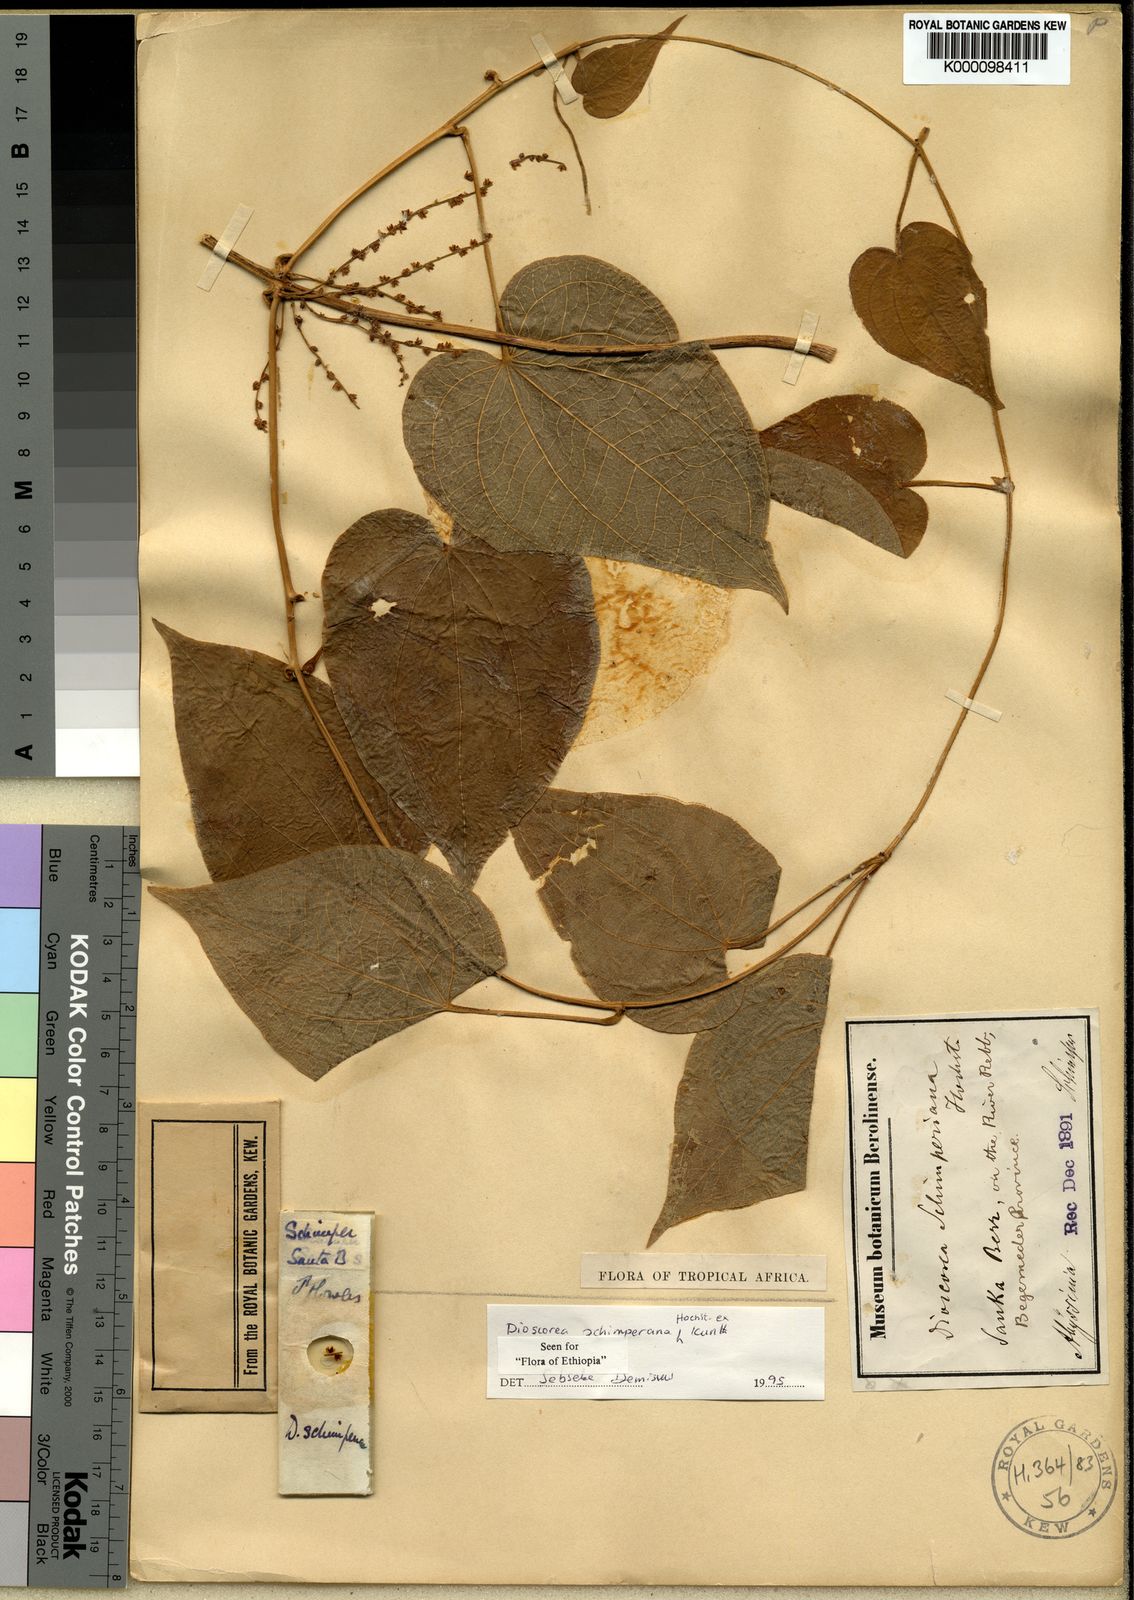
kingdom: Plantae
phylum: Tracheophyta
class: Liliopsida
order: Dioscoreales
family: Dioscoreaceae
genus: Dioscorea
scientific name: Dioscorea schimperiana
